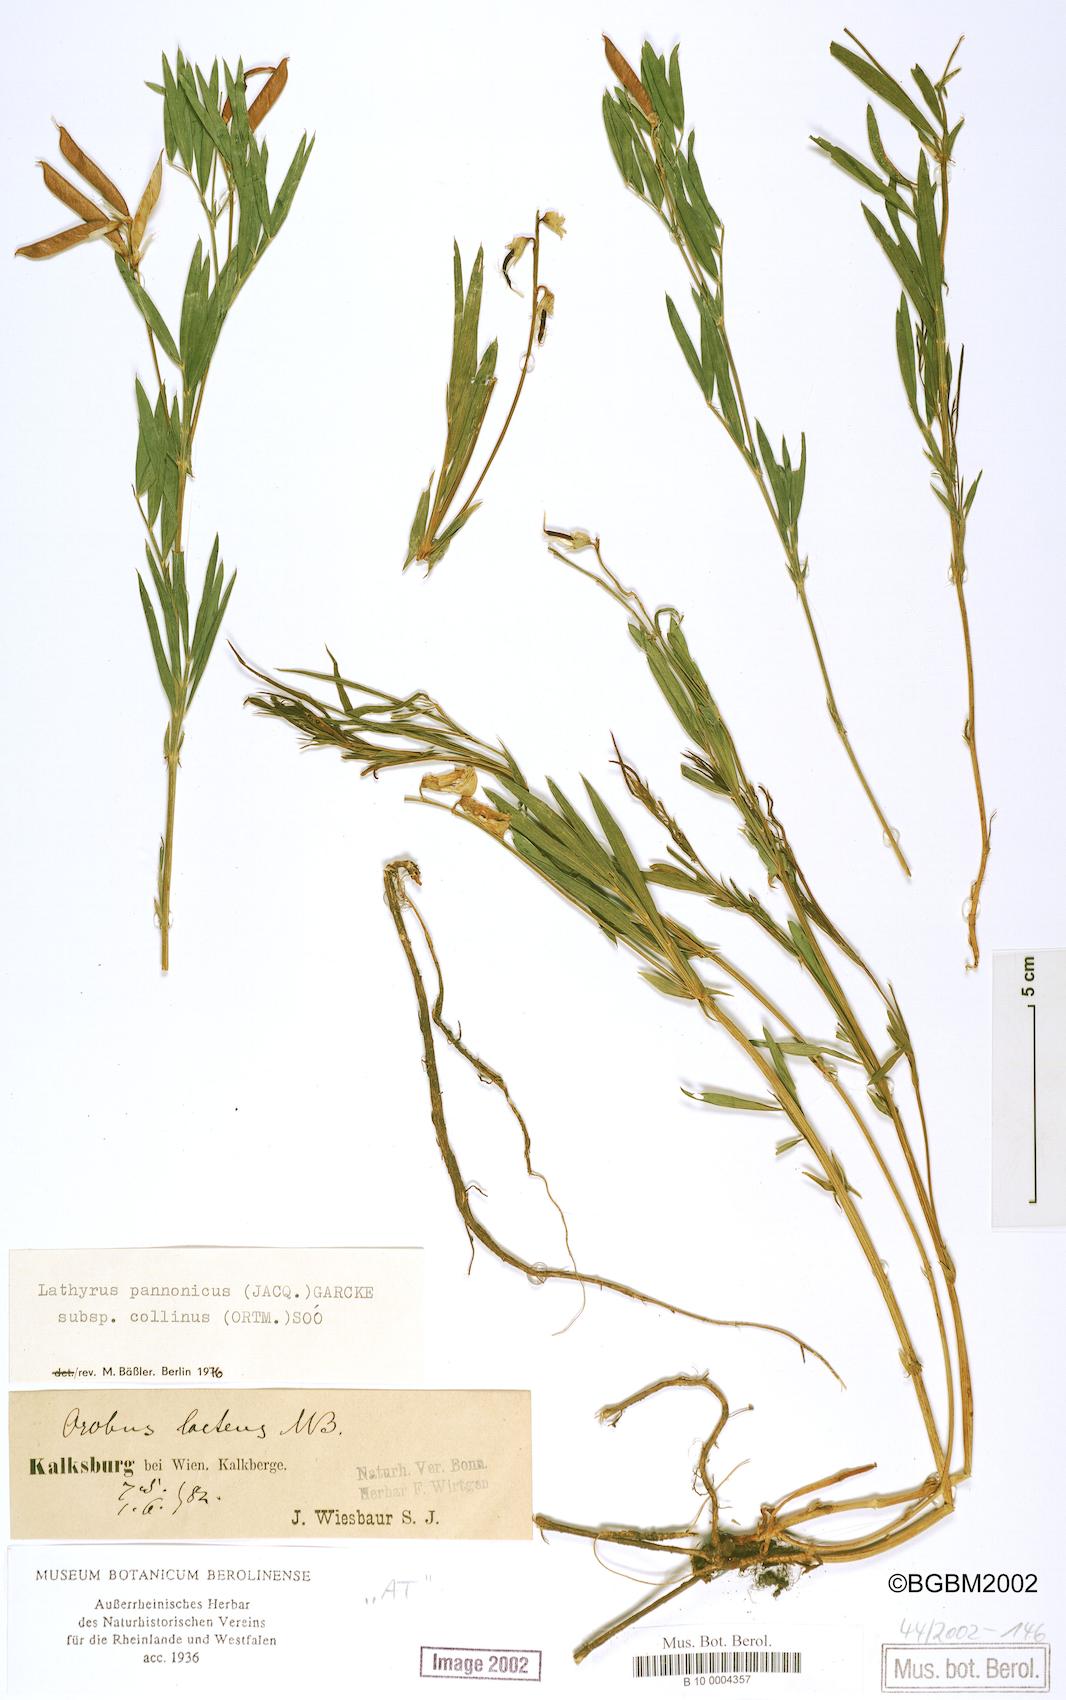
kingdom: Plantae
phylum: Tracheophyta
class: Magnoliopsida
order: Fabales
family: Fabaceae
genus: Lathyrus
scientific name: Lathyrus pannonicus
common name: Pea
